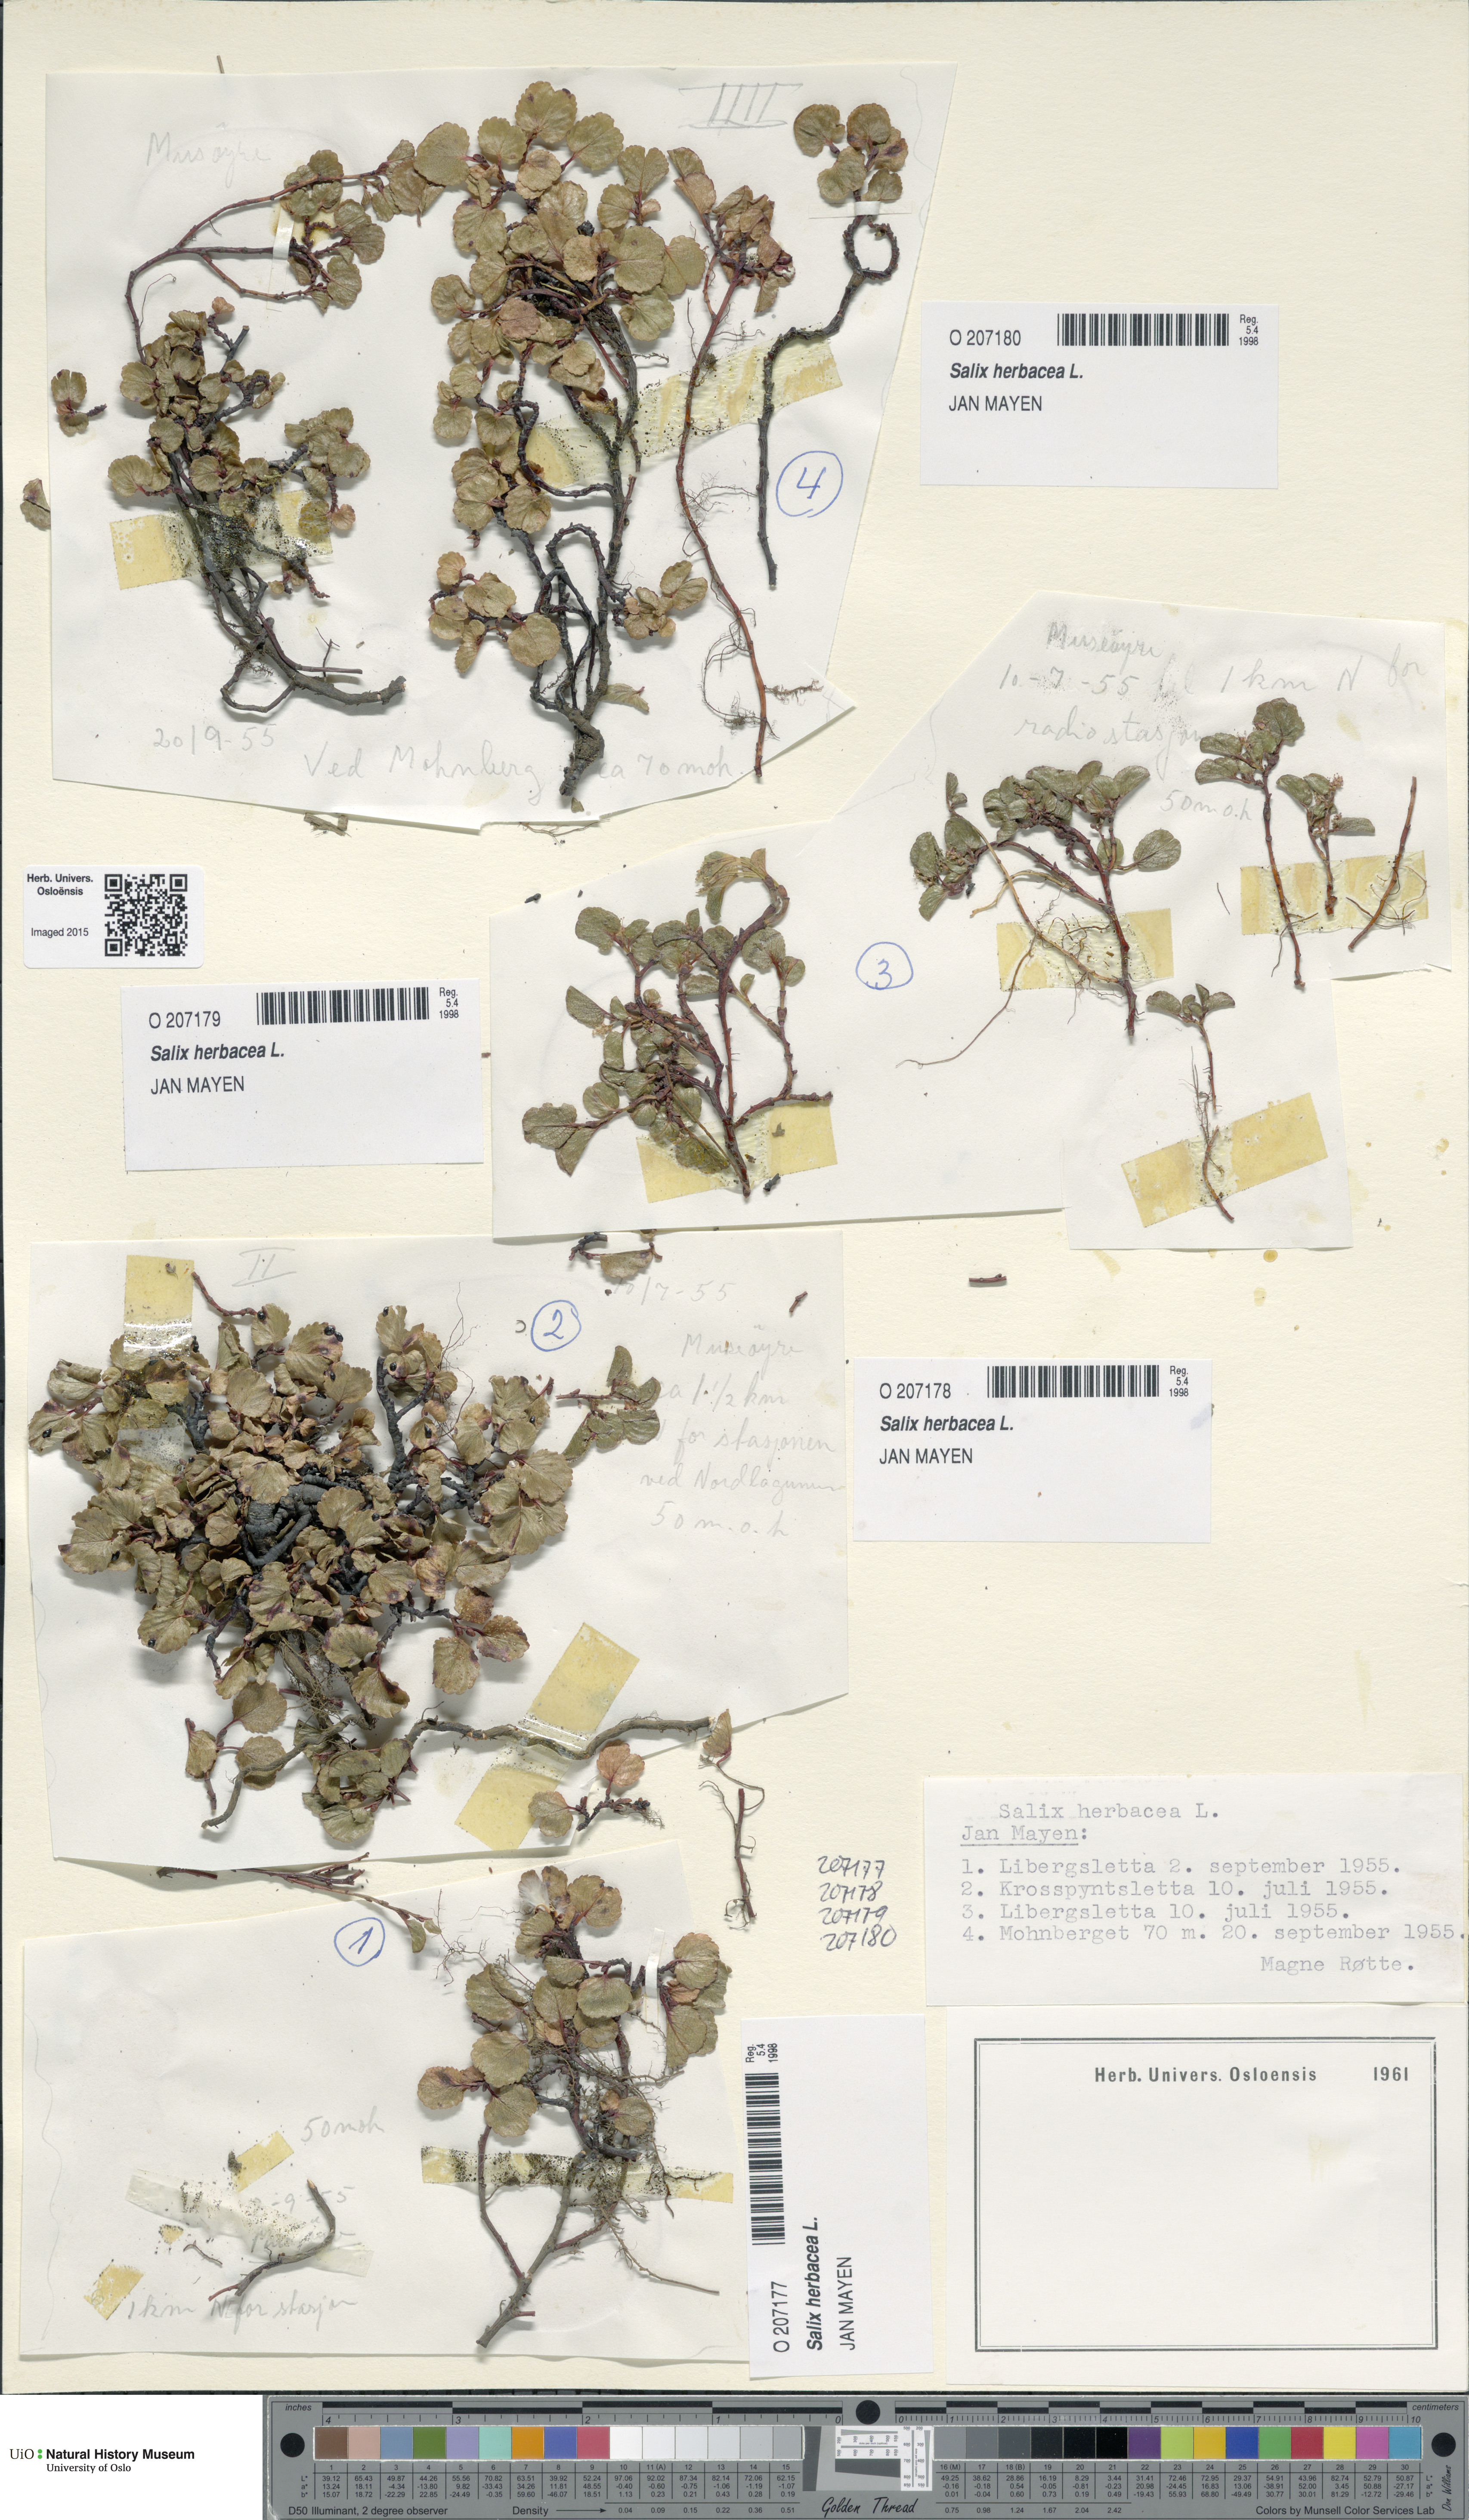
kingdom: Plantae
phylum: Tracheophyta
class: Magnoliopsida
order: Malpighiales
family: Salicaceae
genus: Salix
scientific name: Salix herbacea
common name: Dwarf willow
